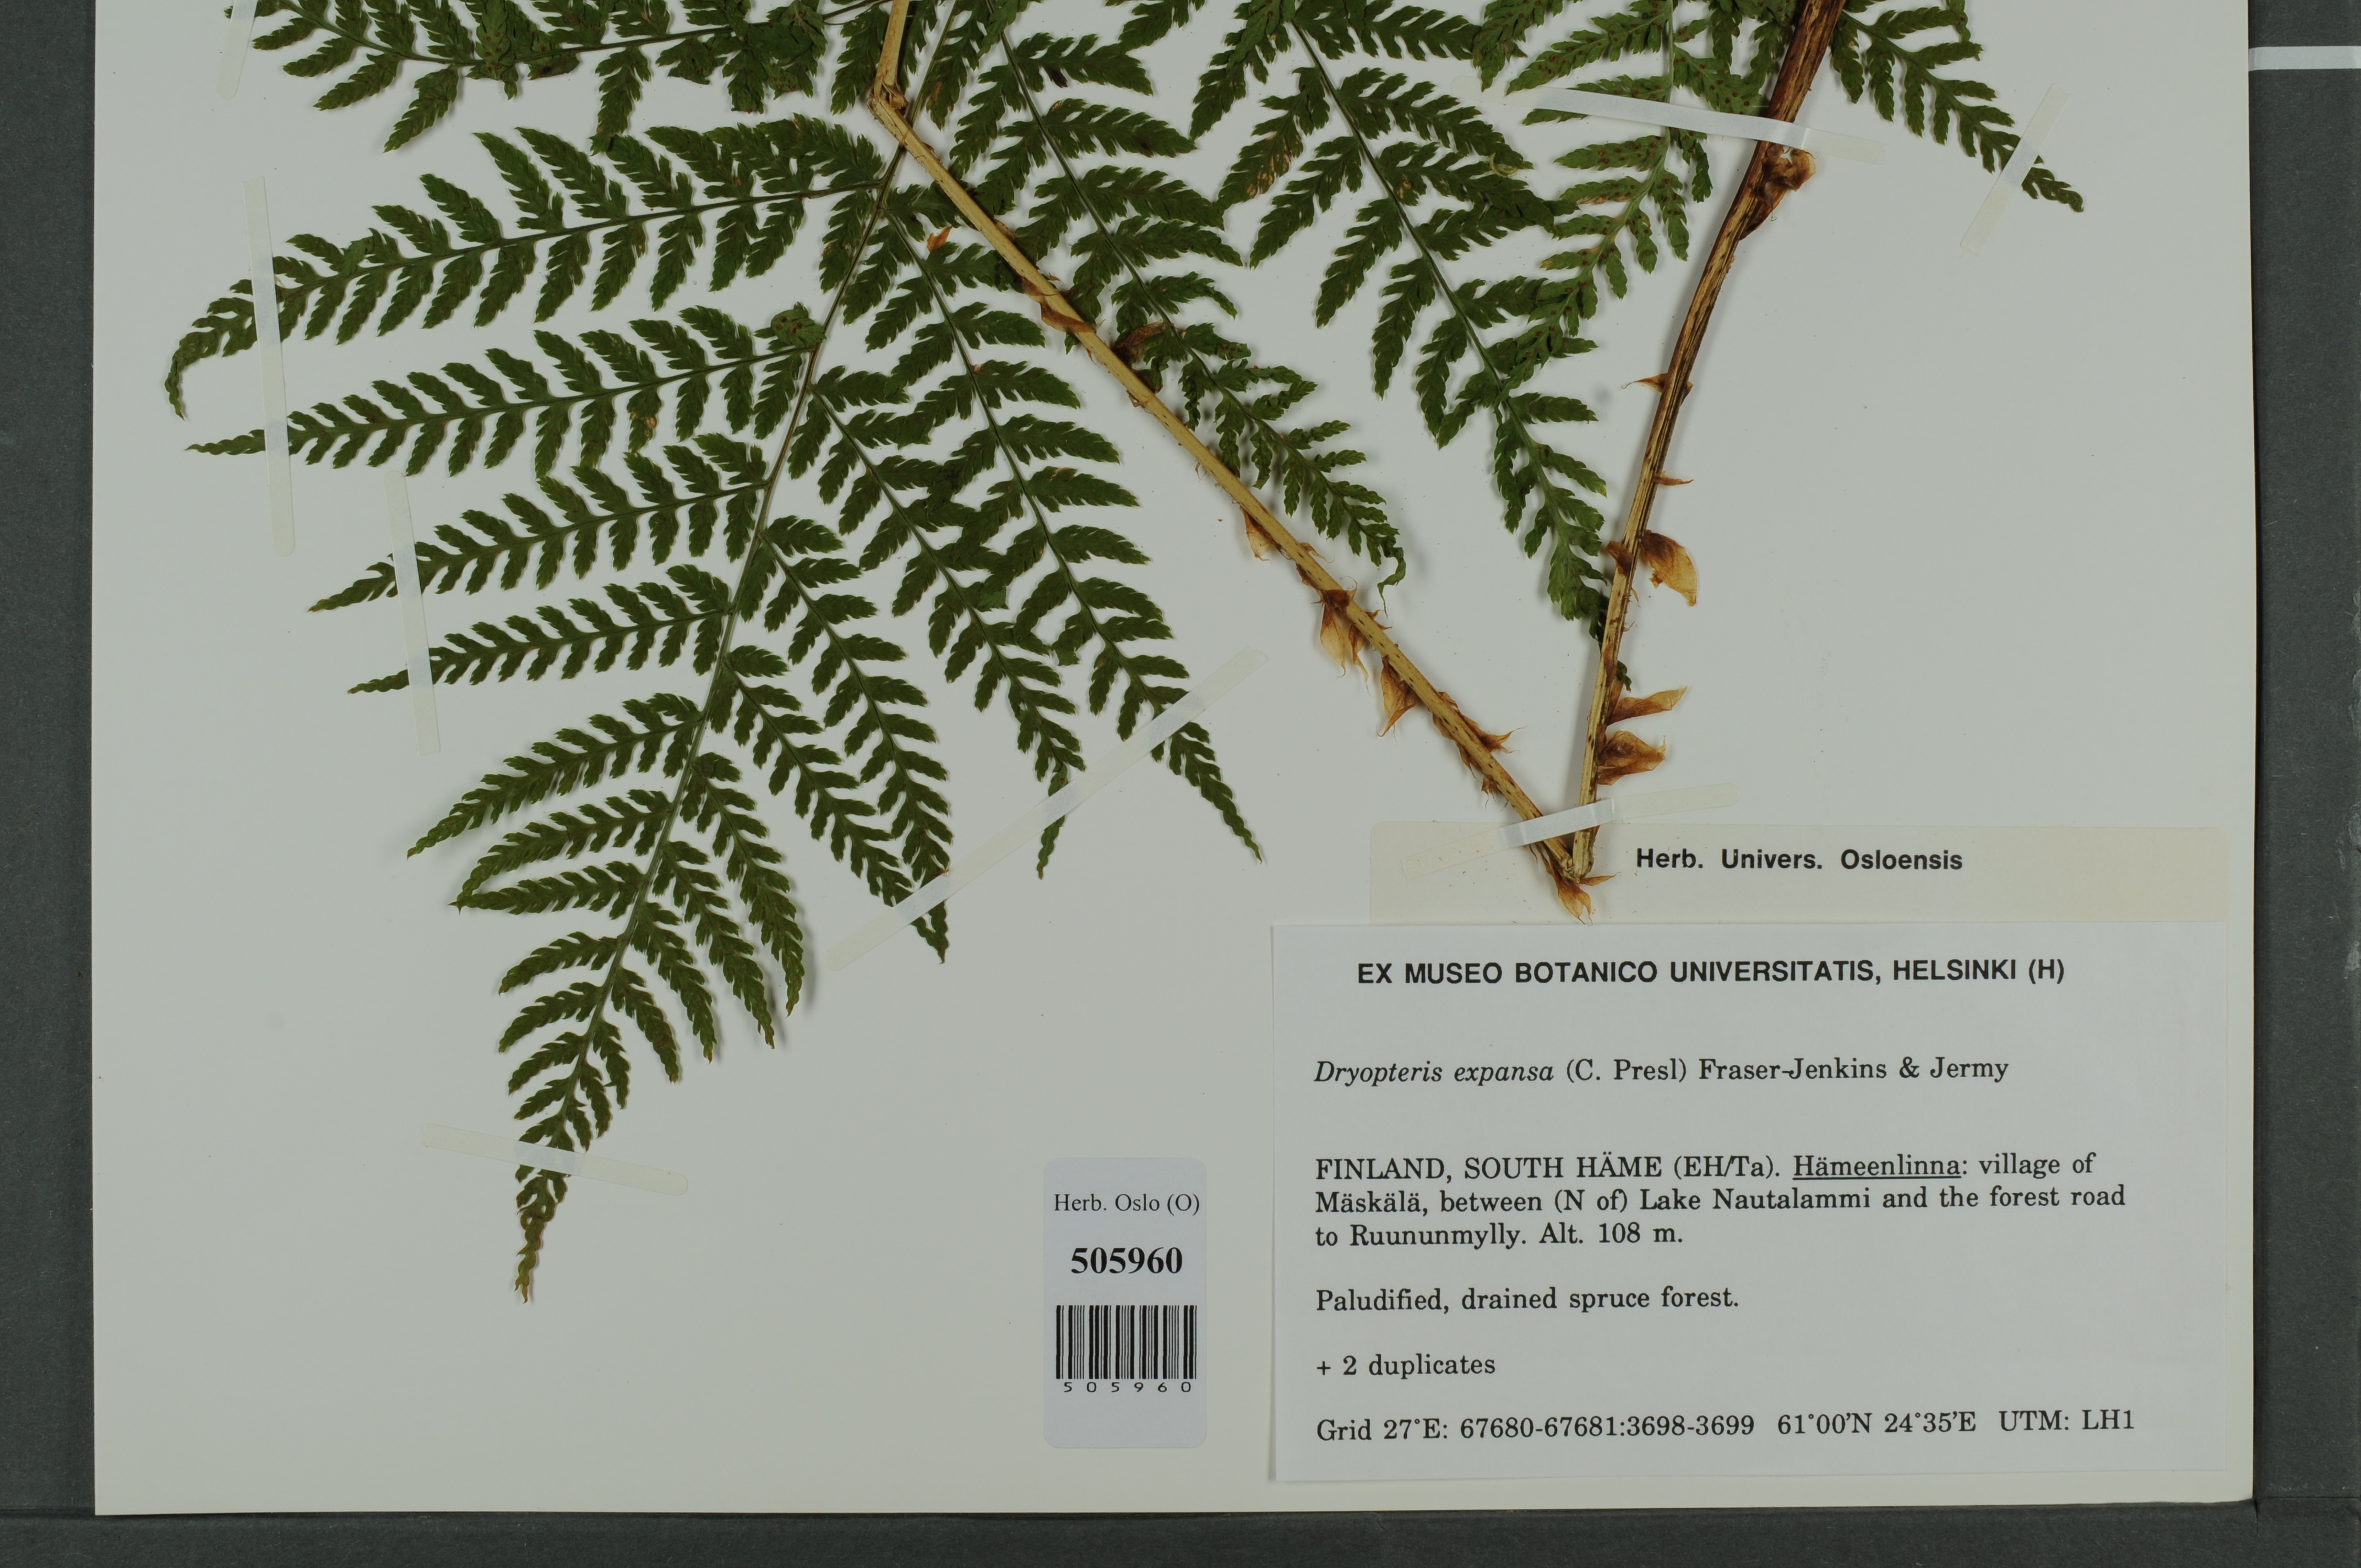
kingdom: Plantae
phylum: Tracheophyta
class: Polypodiopsida
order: Polypodiales
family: Dryopteridaceae
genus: Dryopteris
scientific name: Dryopteris expansa
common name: Northern buckler fern
